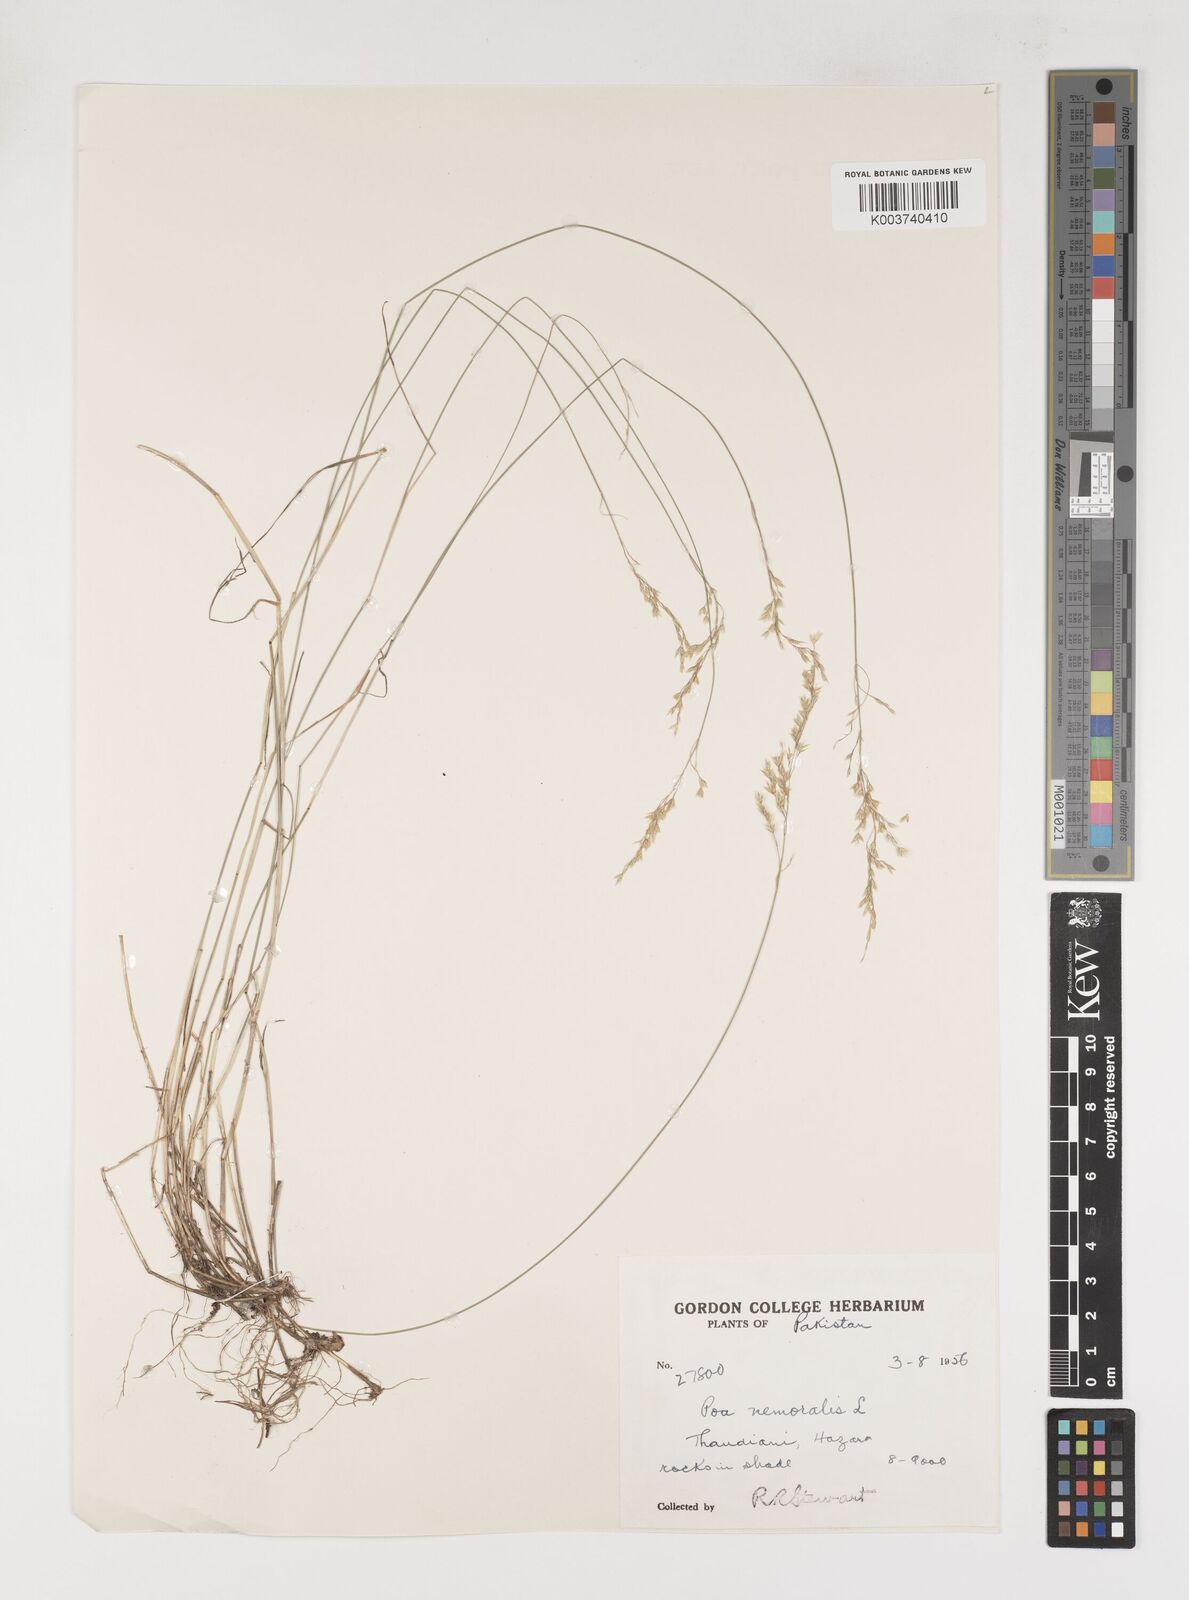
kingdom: Plantae
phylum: Tracheophyta
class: Liliopsida
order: Poales
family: Poaceae
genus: Poa
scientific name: Poa nemoralis
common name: Wood bluegrass
